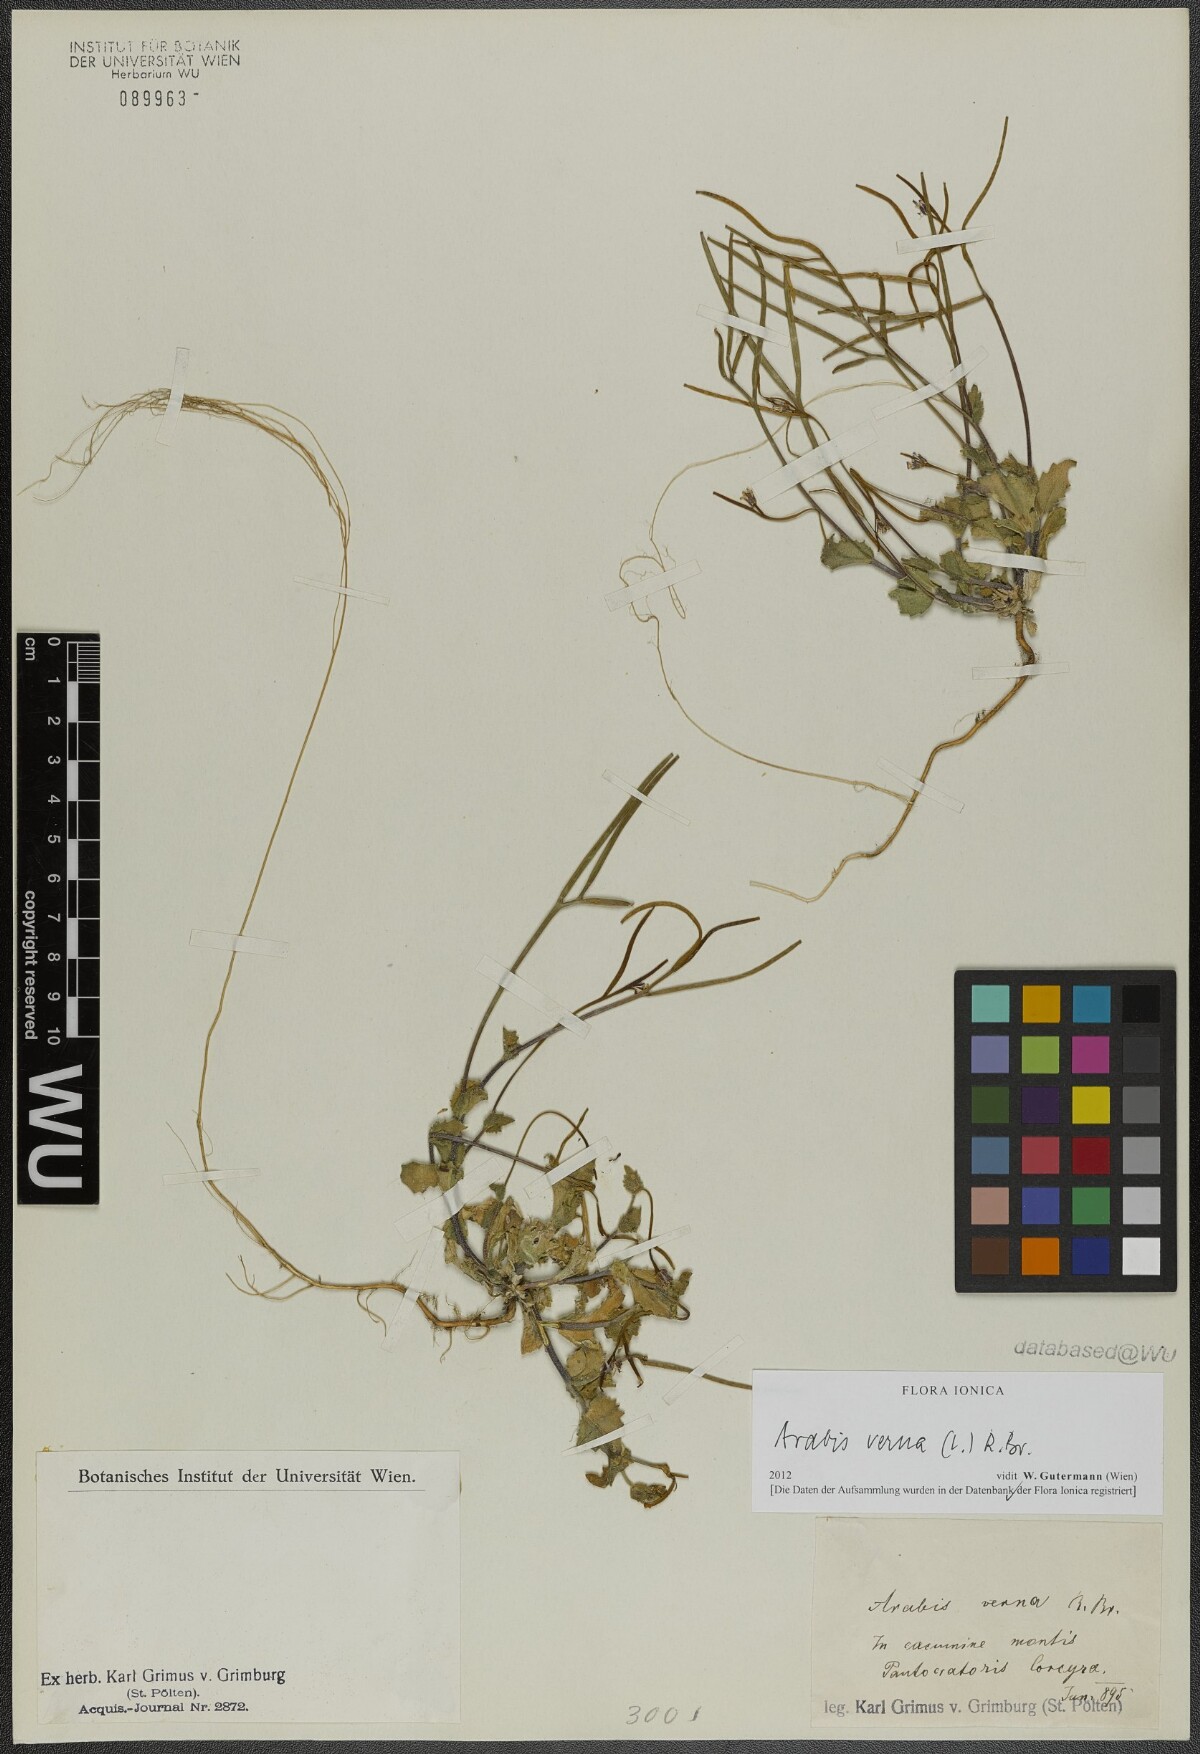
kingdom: Plantae
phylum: Tracheophyta
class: Magnoliopsida
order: Brassicales
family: Brassicaceae
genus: Arabis
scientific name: Arabis verna
